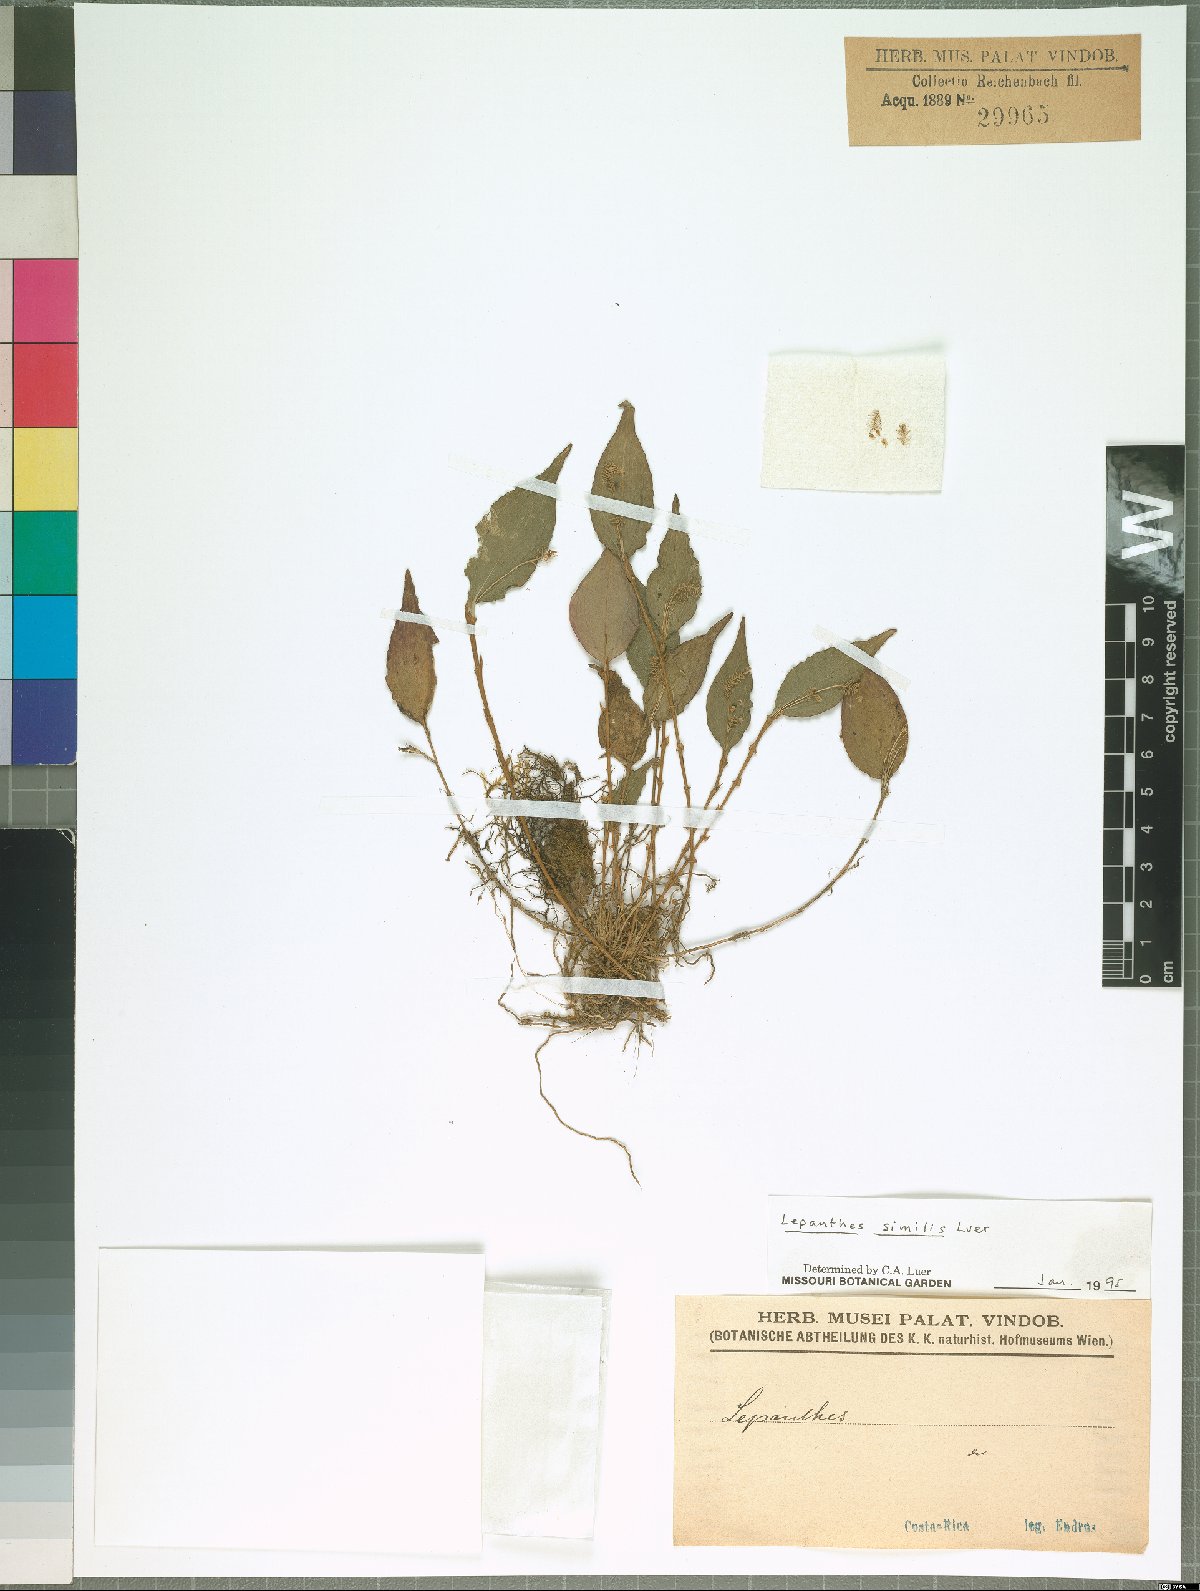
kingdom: Plantae
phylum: Tracheophyta
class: Liliopsida
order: Asparagales
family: Orchidaceae
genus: Lepanthes
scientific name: Lepanthes similis
